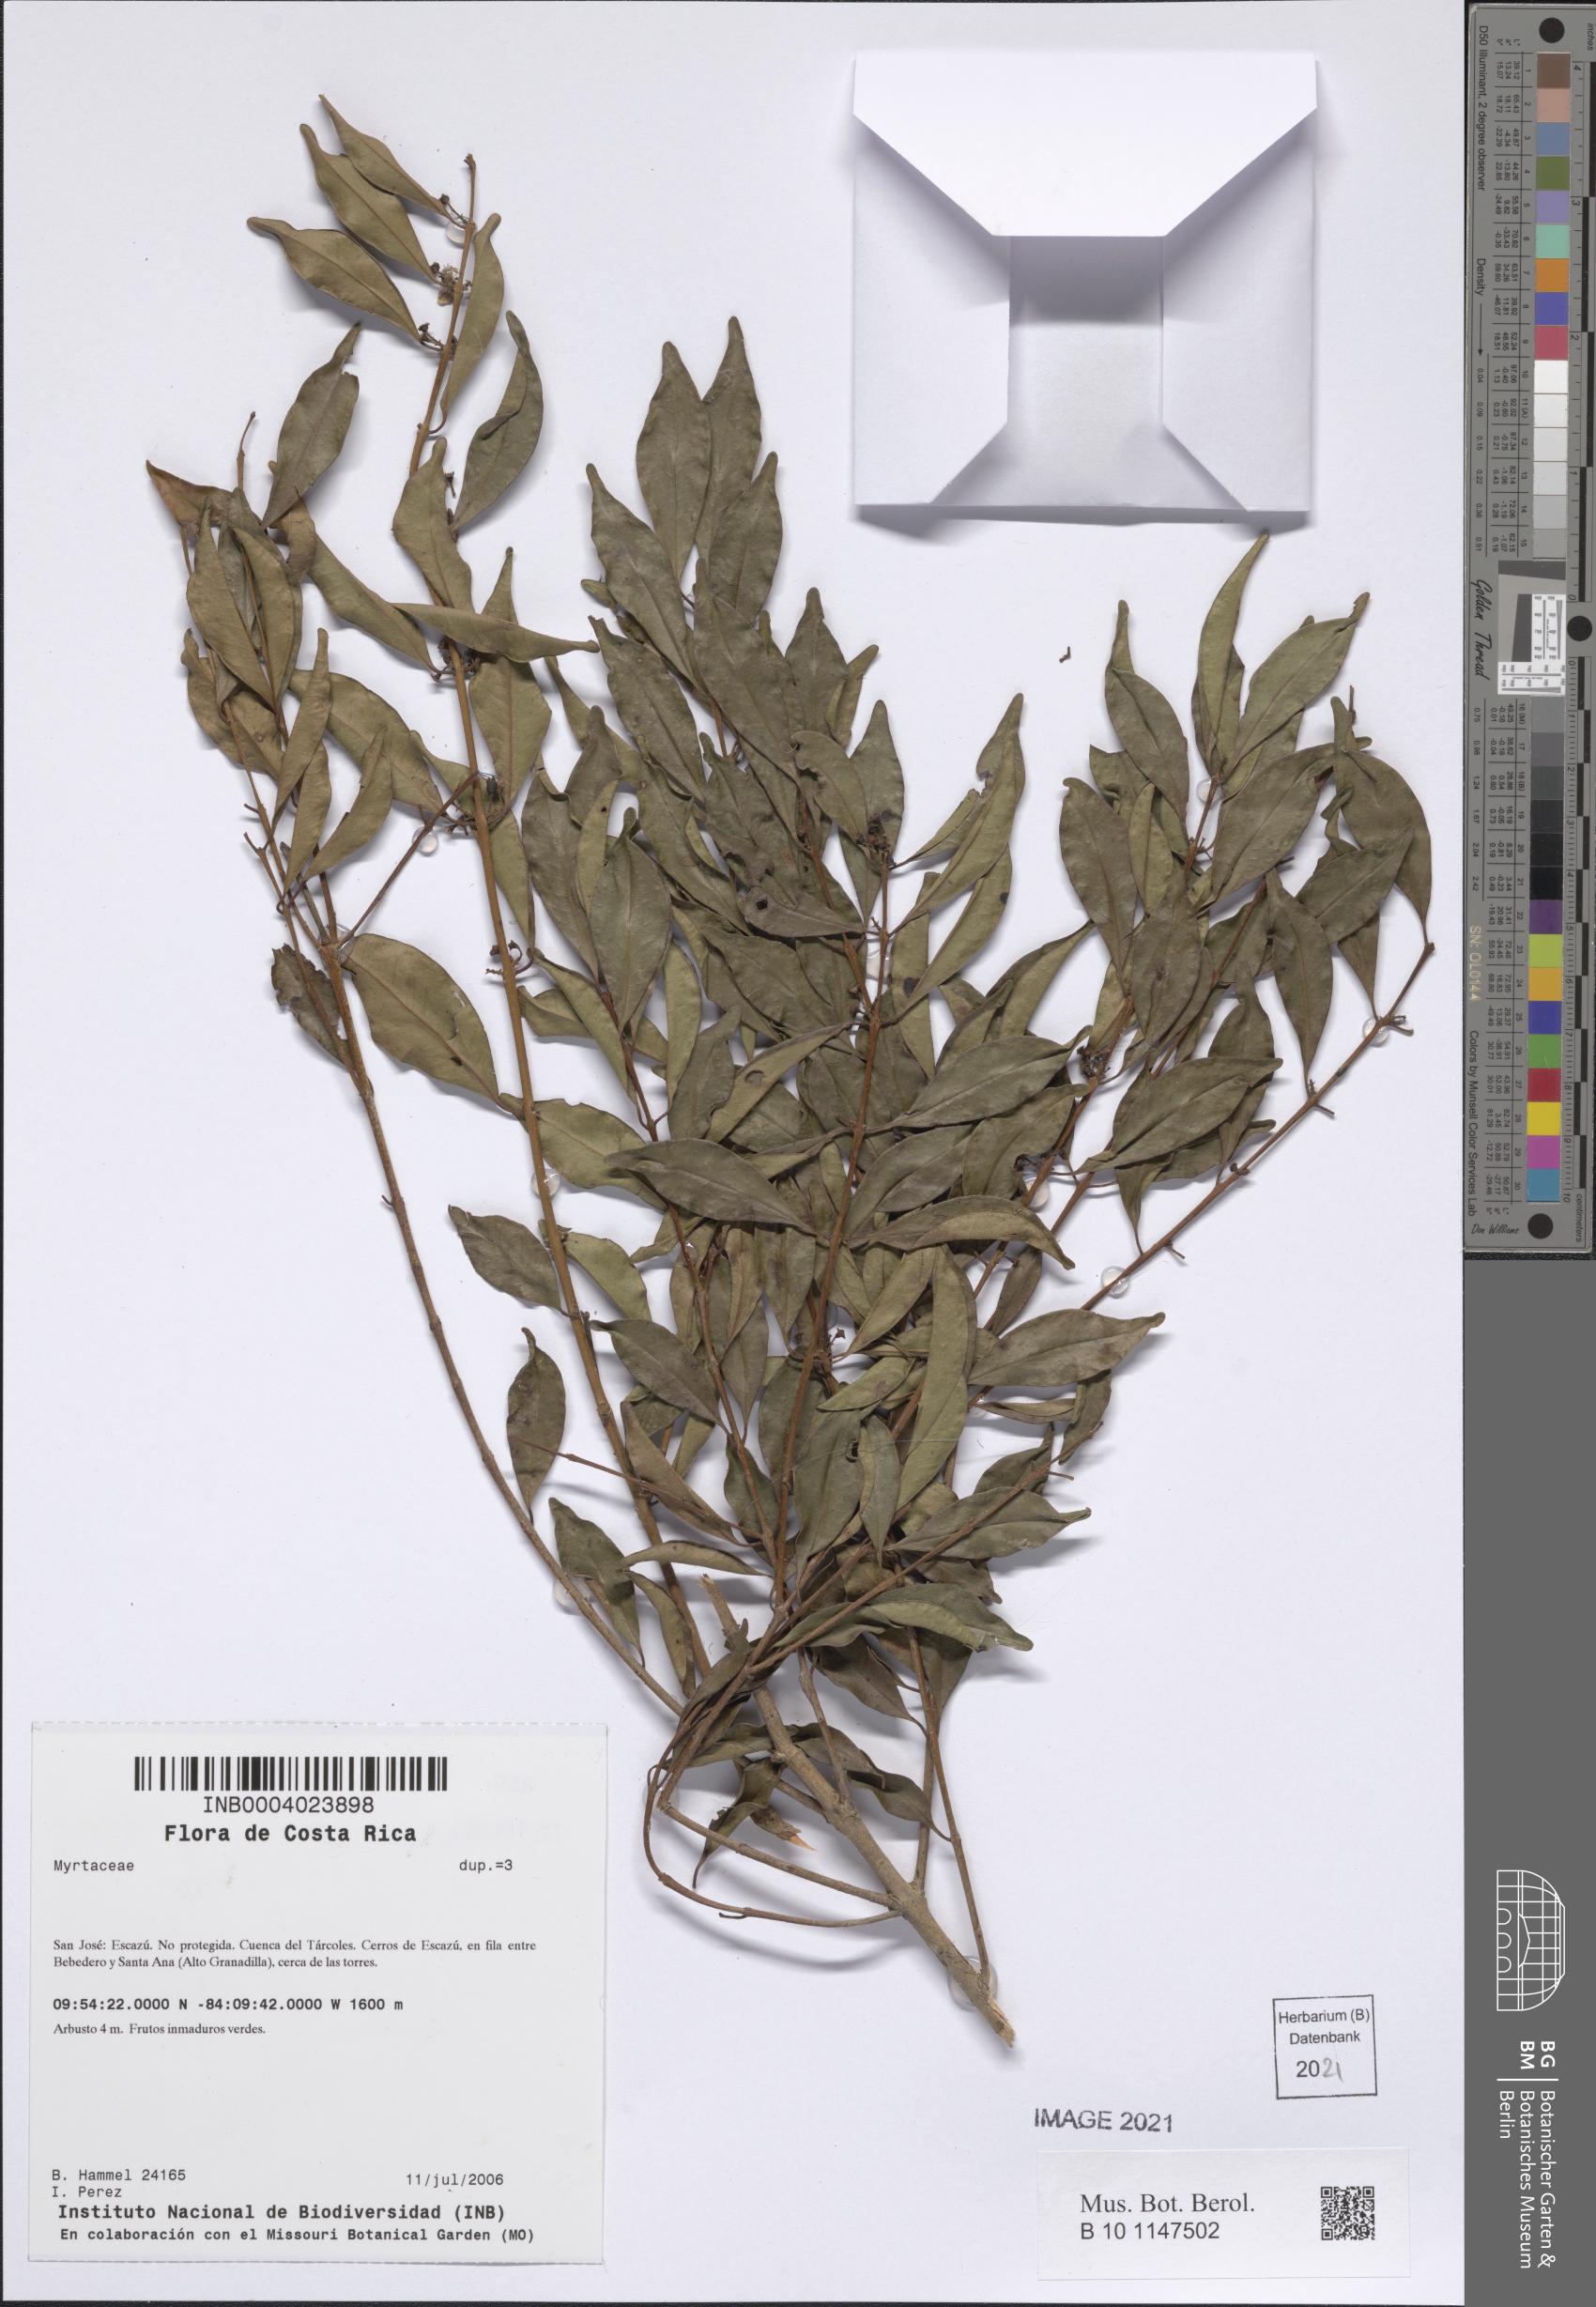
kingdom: Plantae
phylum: Tracheophyta
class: Magnoliopsida
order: Myrtales
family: Myrtaceae
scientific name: Myrtaceae
